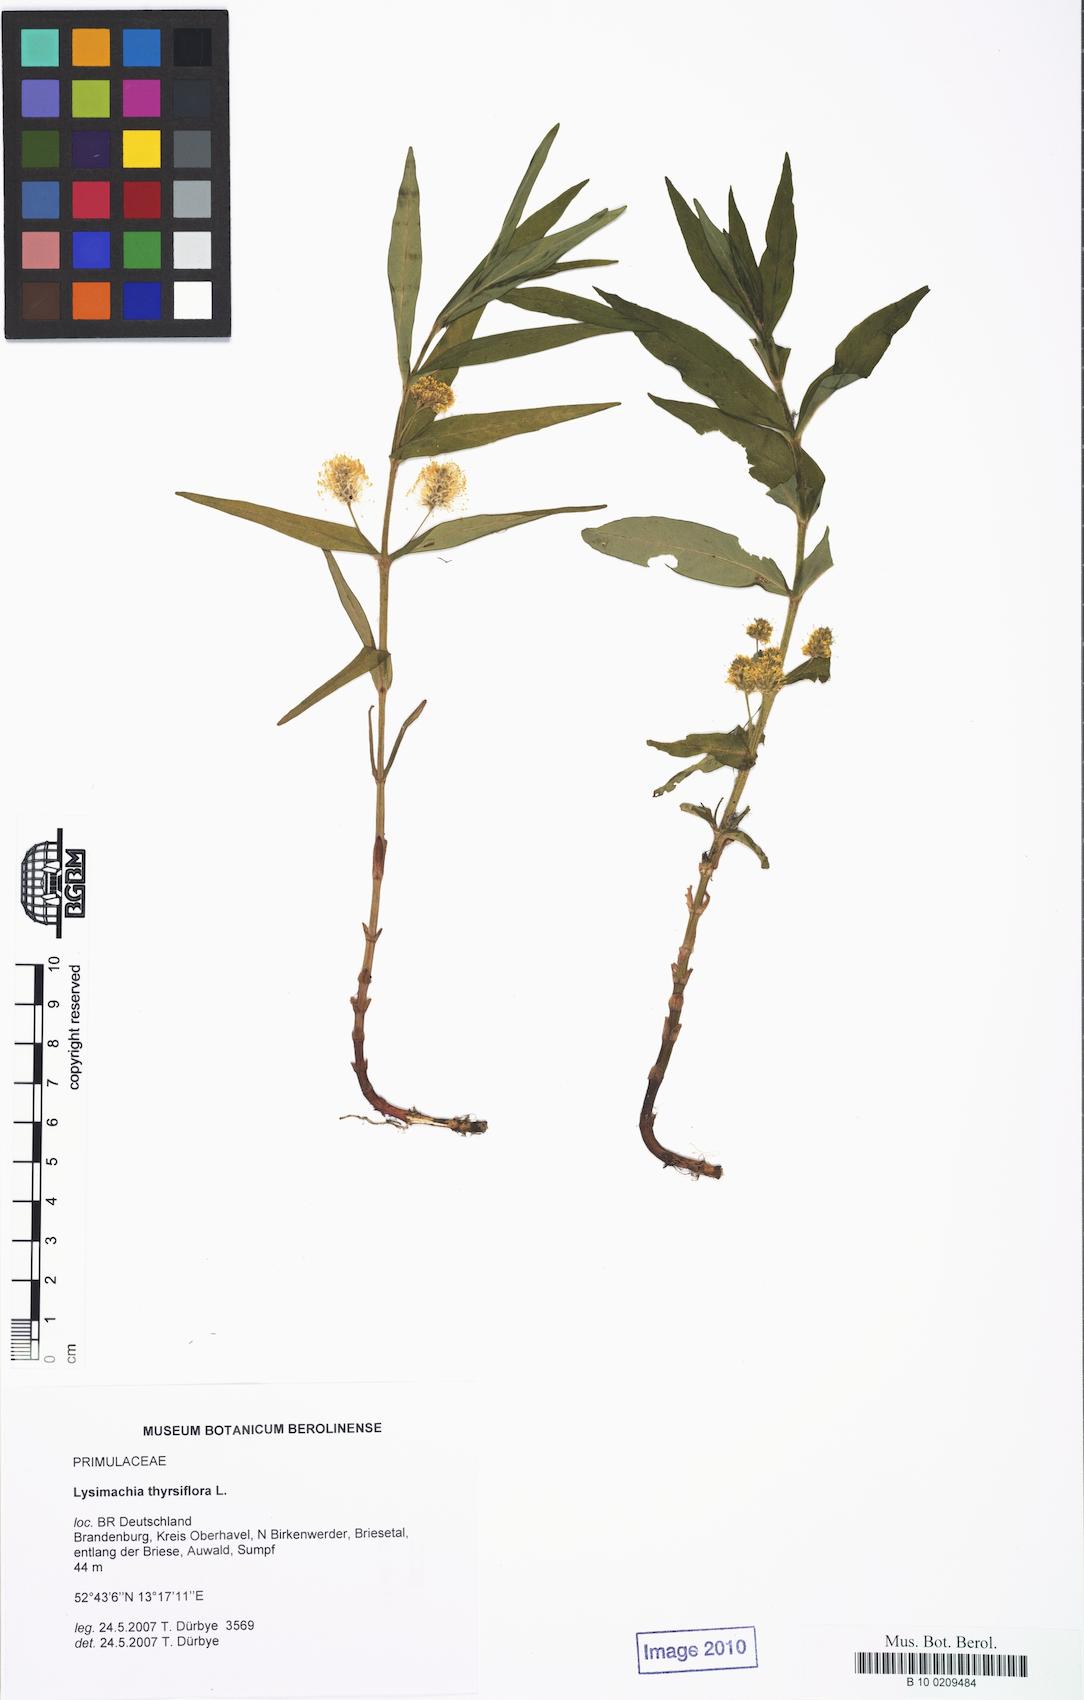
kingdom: Plantae
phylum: Tracheophyta
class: Magnoliopsida
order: Ericales
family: Primulaceae
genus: Lysimachia
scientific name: Lysimachia thyrsiflora
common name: Tufted loosestrife
